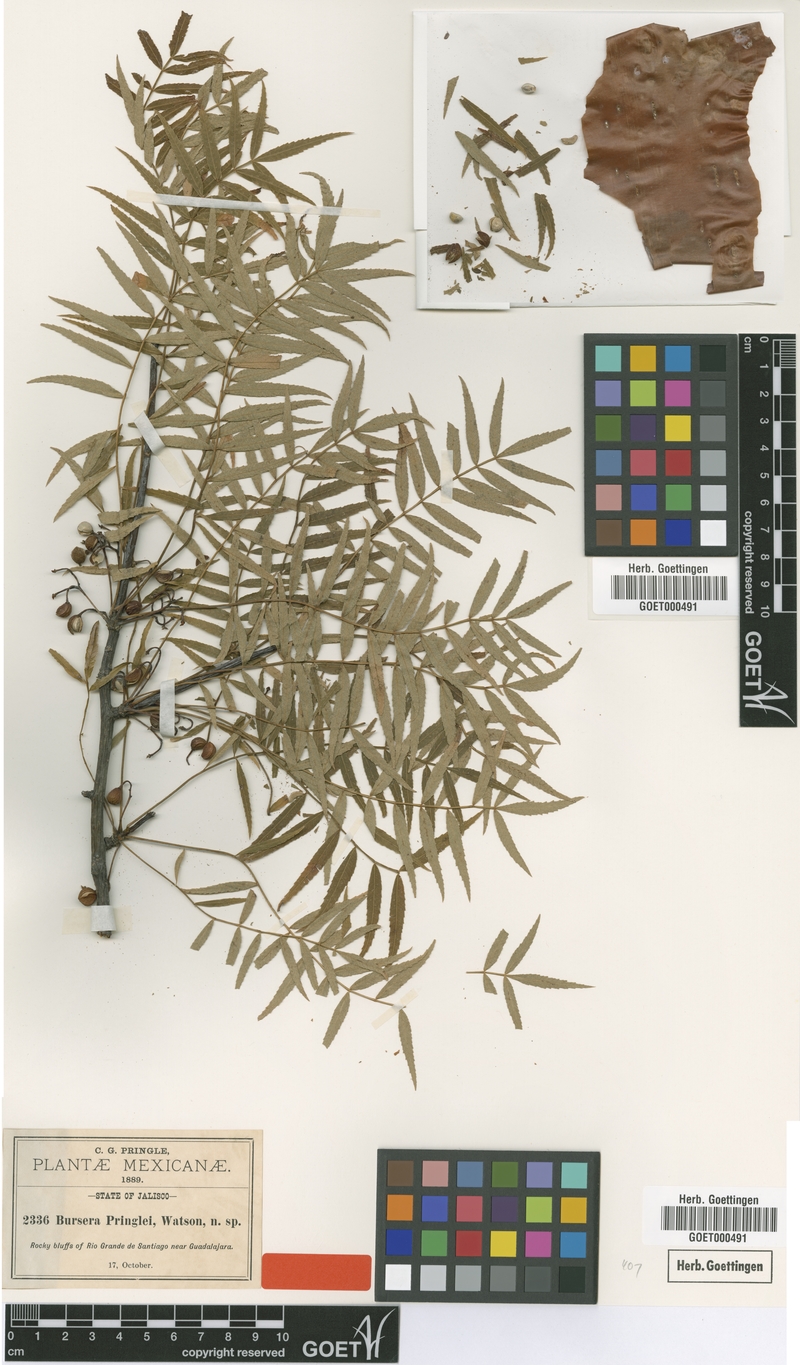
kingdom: Plantae
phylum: Tracheophyta
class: Magnoliopsida
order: Sapindales
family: Burseraceae
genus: Bursera
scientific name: Bursera multijuga
